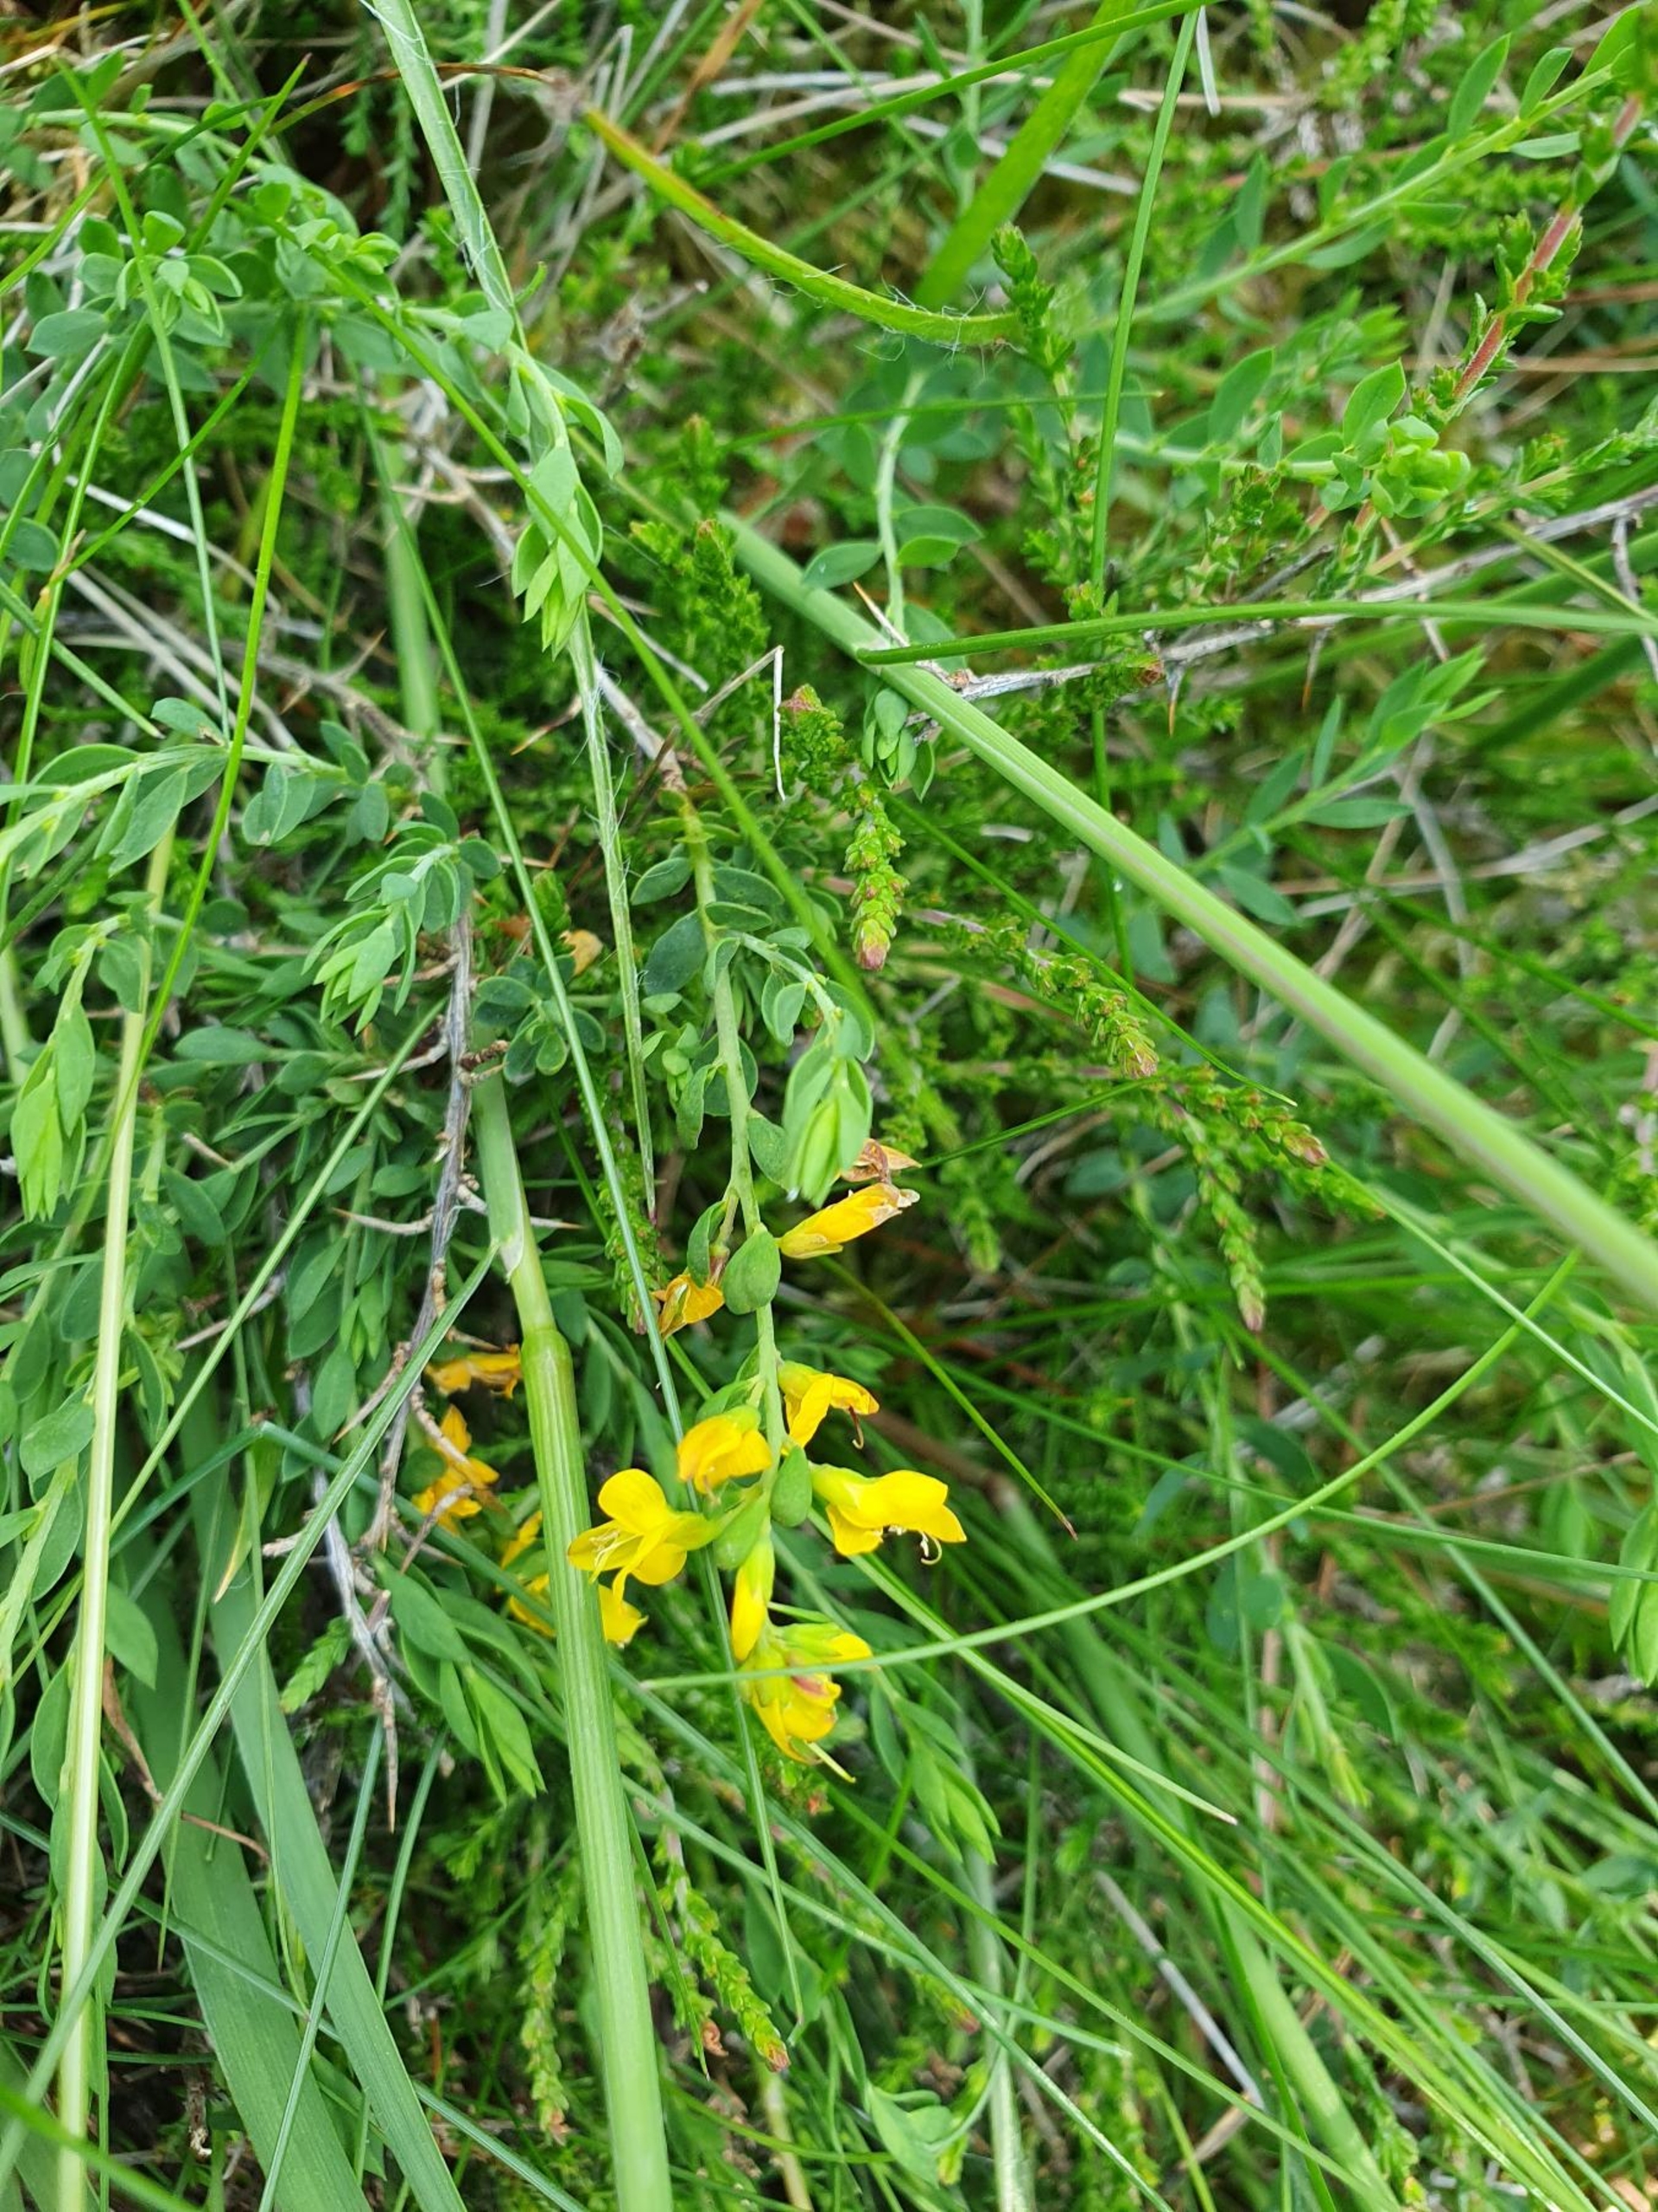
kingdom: Plantae
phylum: Tracheophyta
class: Magnoliopsida
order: Fabales
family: Fabaceae
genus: Genista
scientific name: Genista anglica
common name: Engelsk visse
